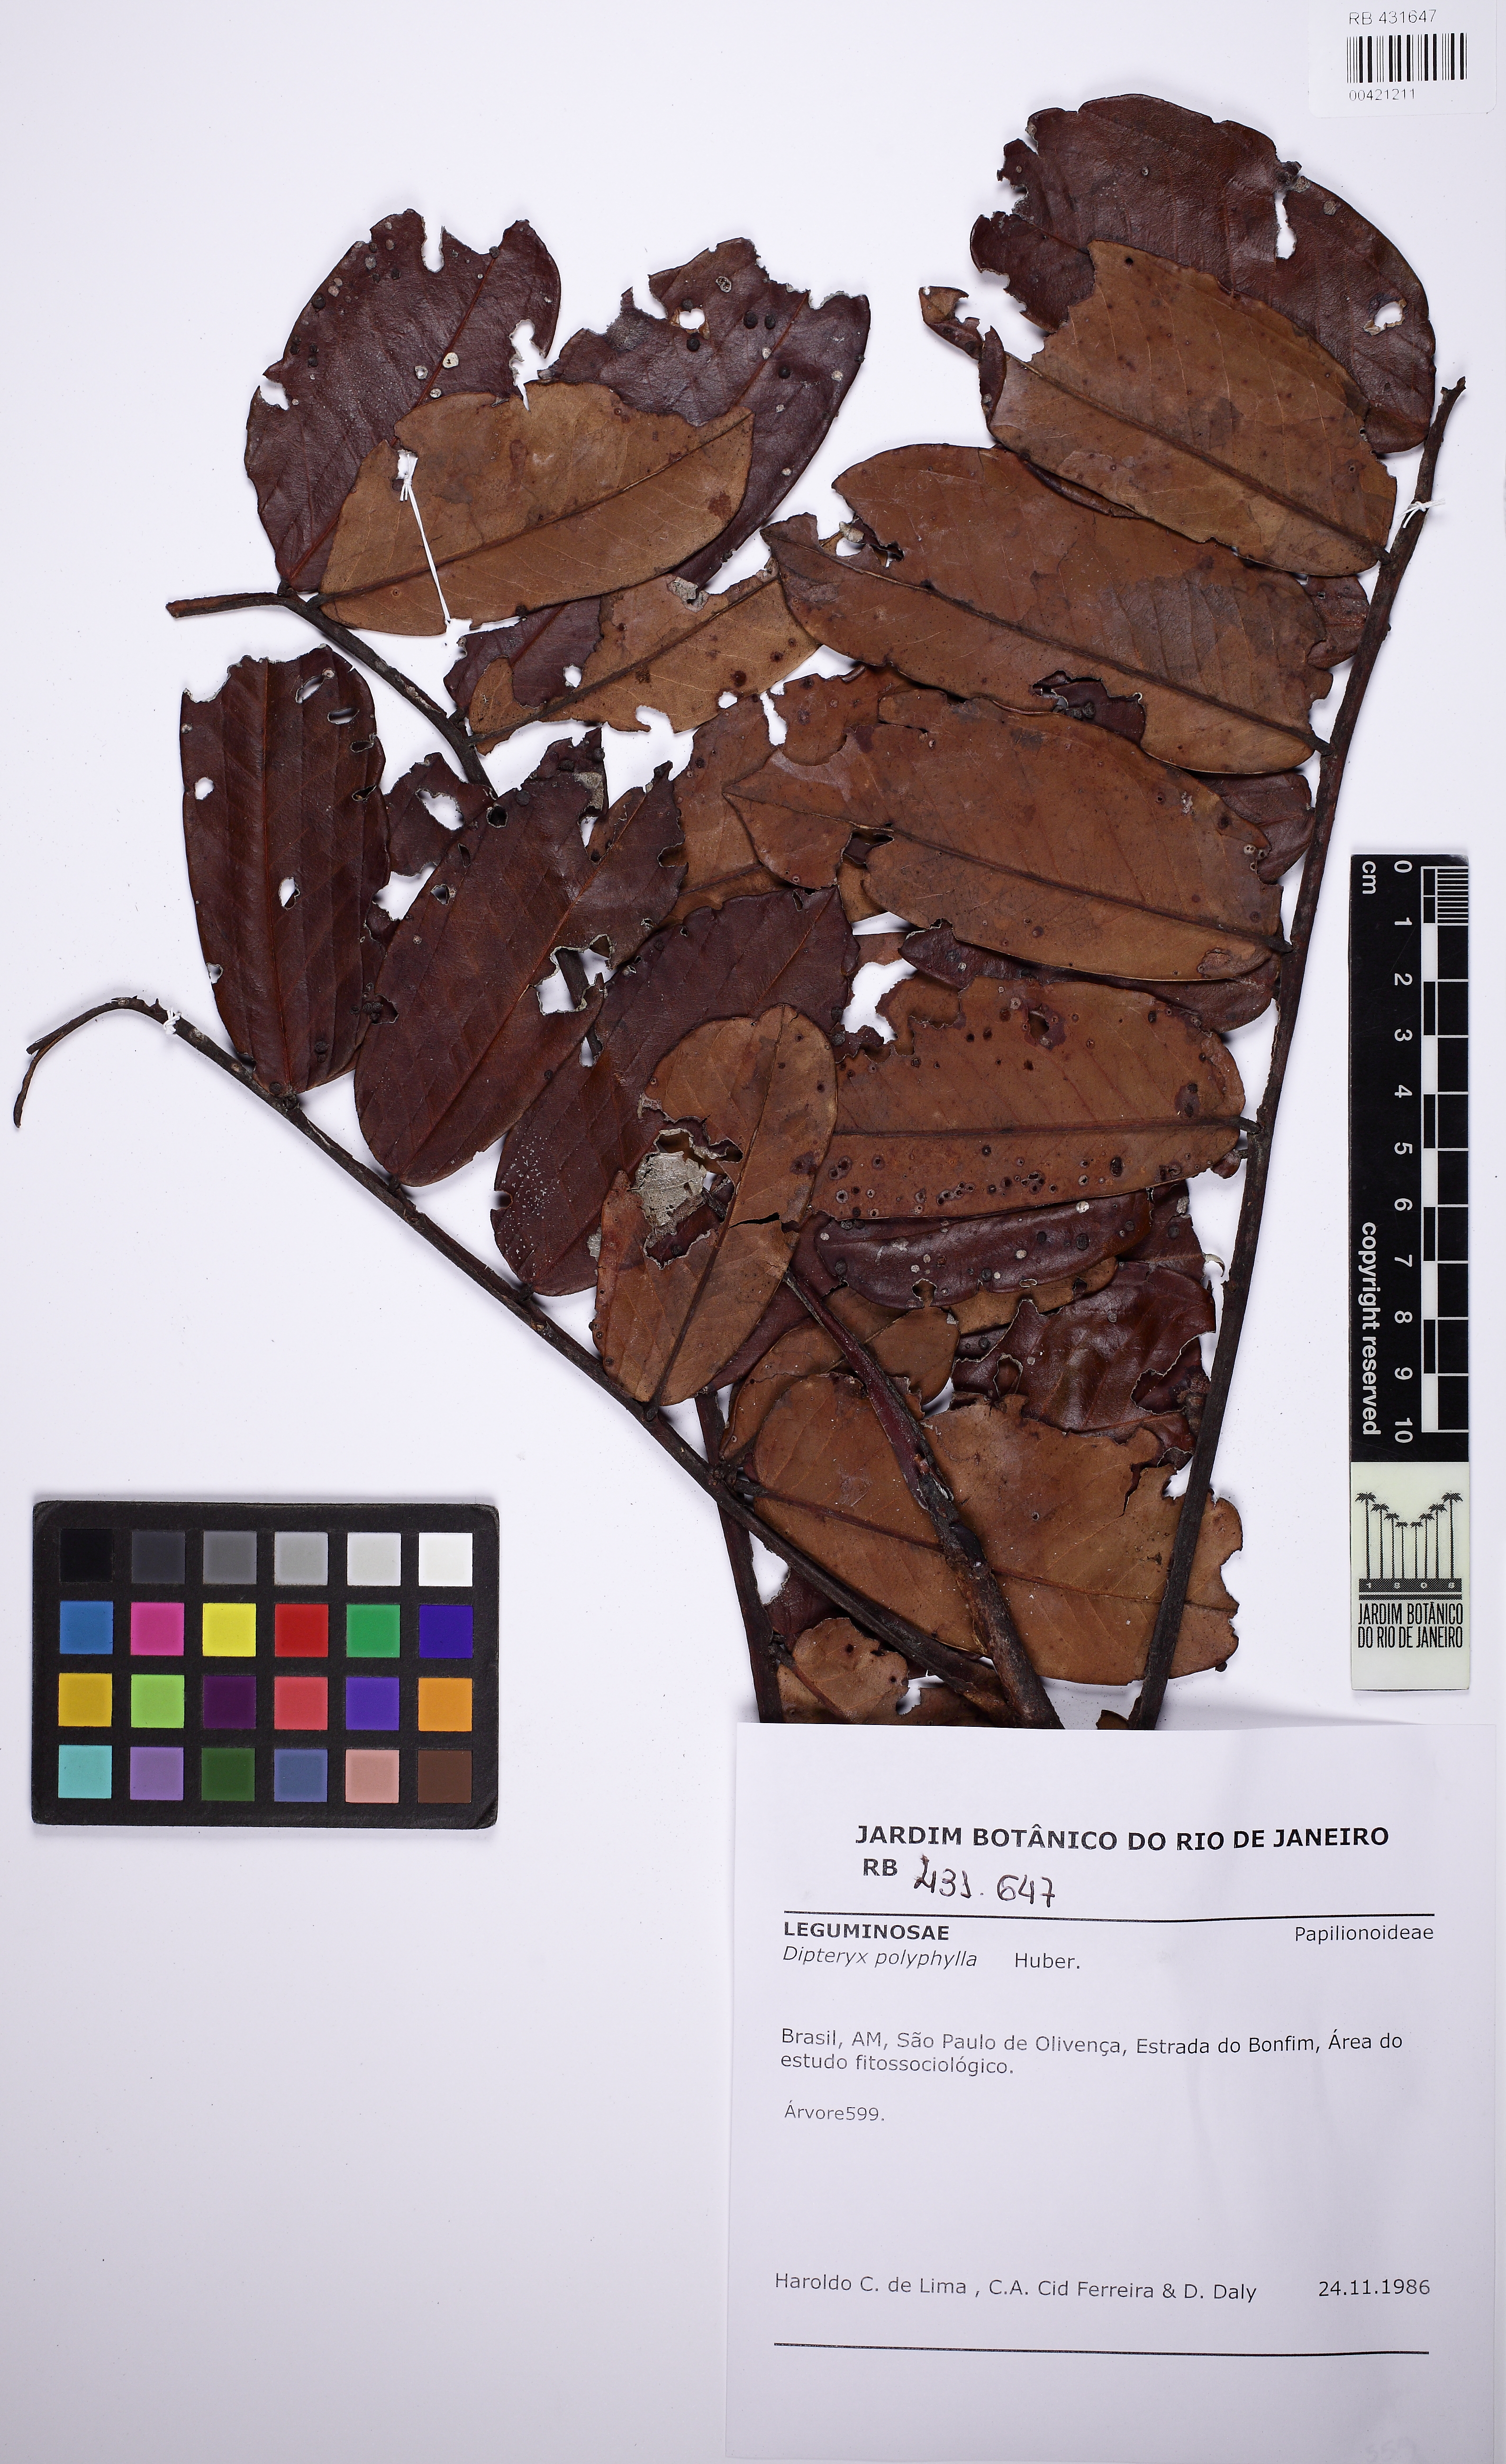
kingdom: Plantae
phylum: Tracheophyta
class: Magnoliopsida
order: Fabales
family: Fabaceae
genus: Dipteryx
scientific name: Dipteryx polyphylla
